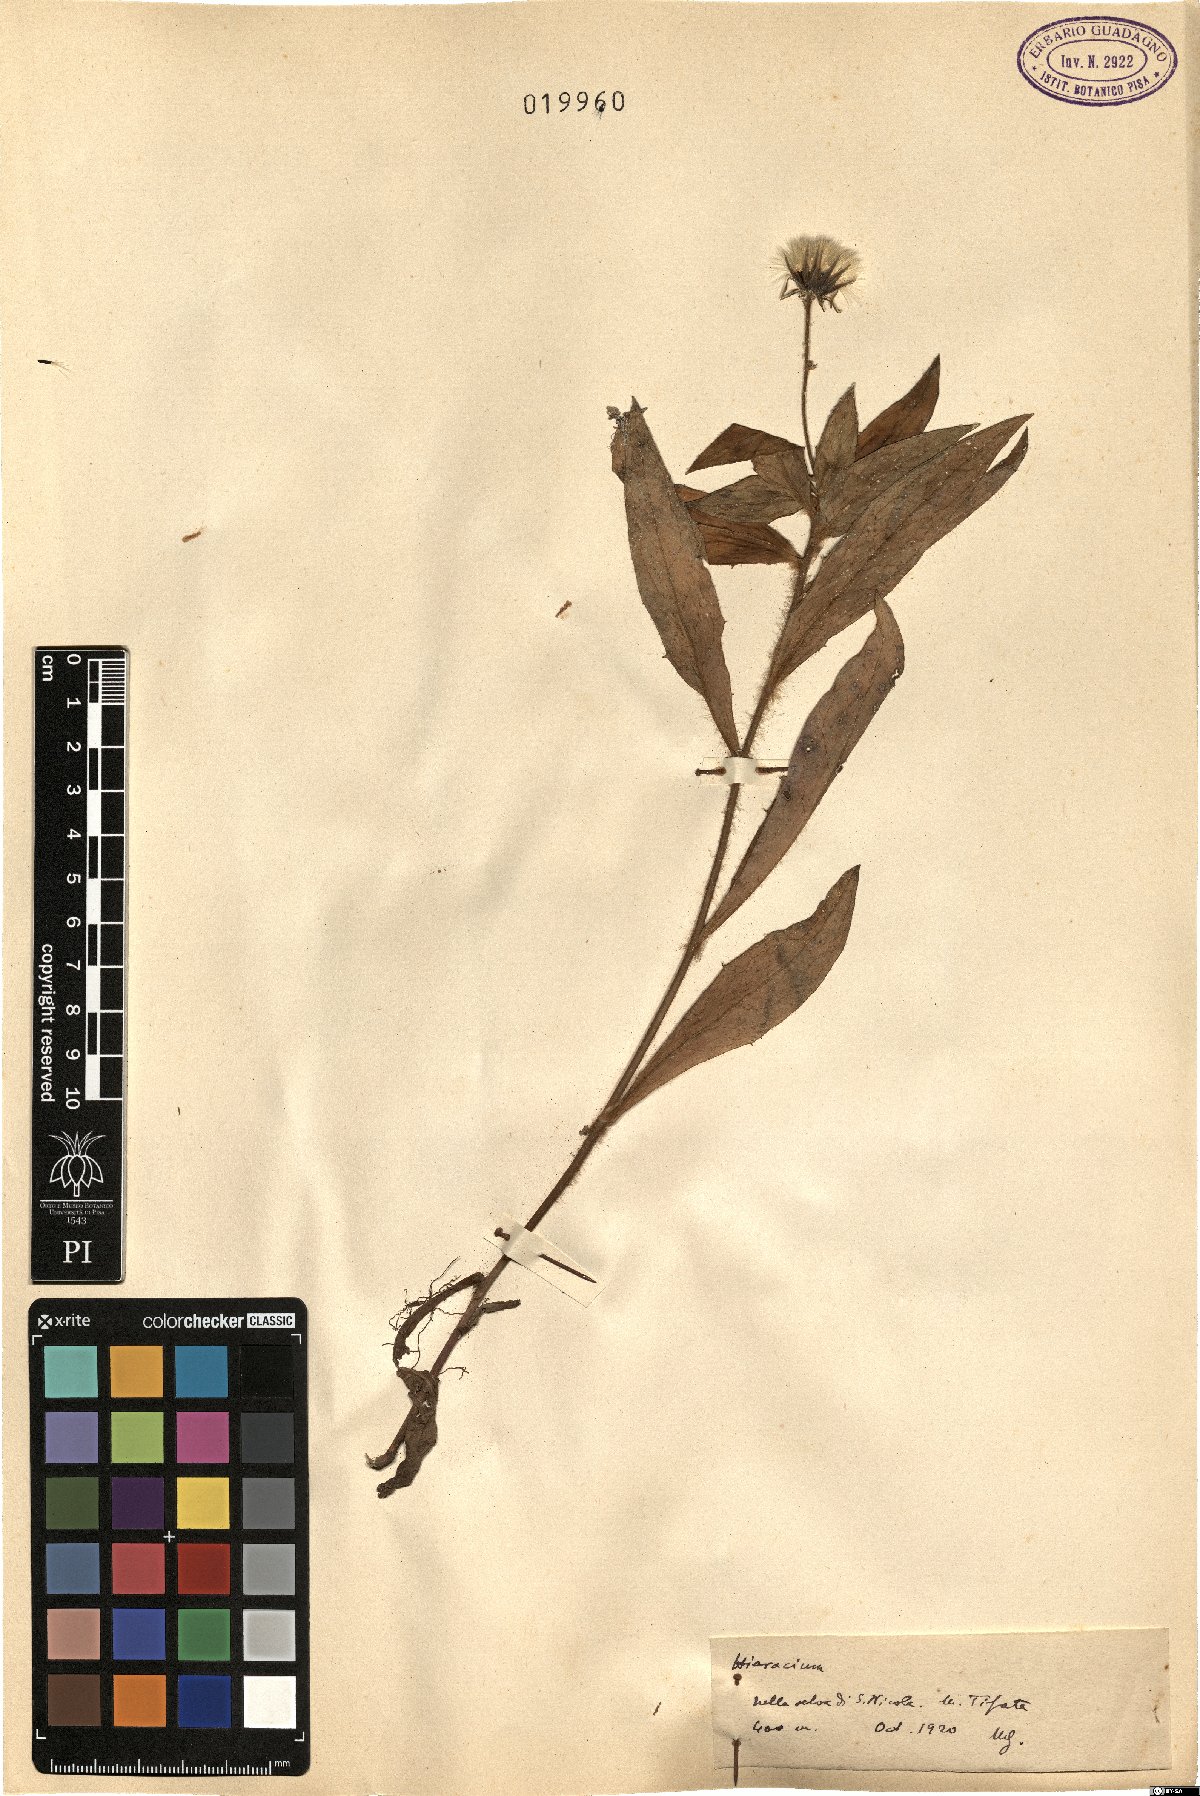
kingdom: Plantae
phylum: Tracheophyta
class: Magnoliopsida
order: Asterales
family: Asteraceae
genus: Hieracium
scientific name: Hieracium
